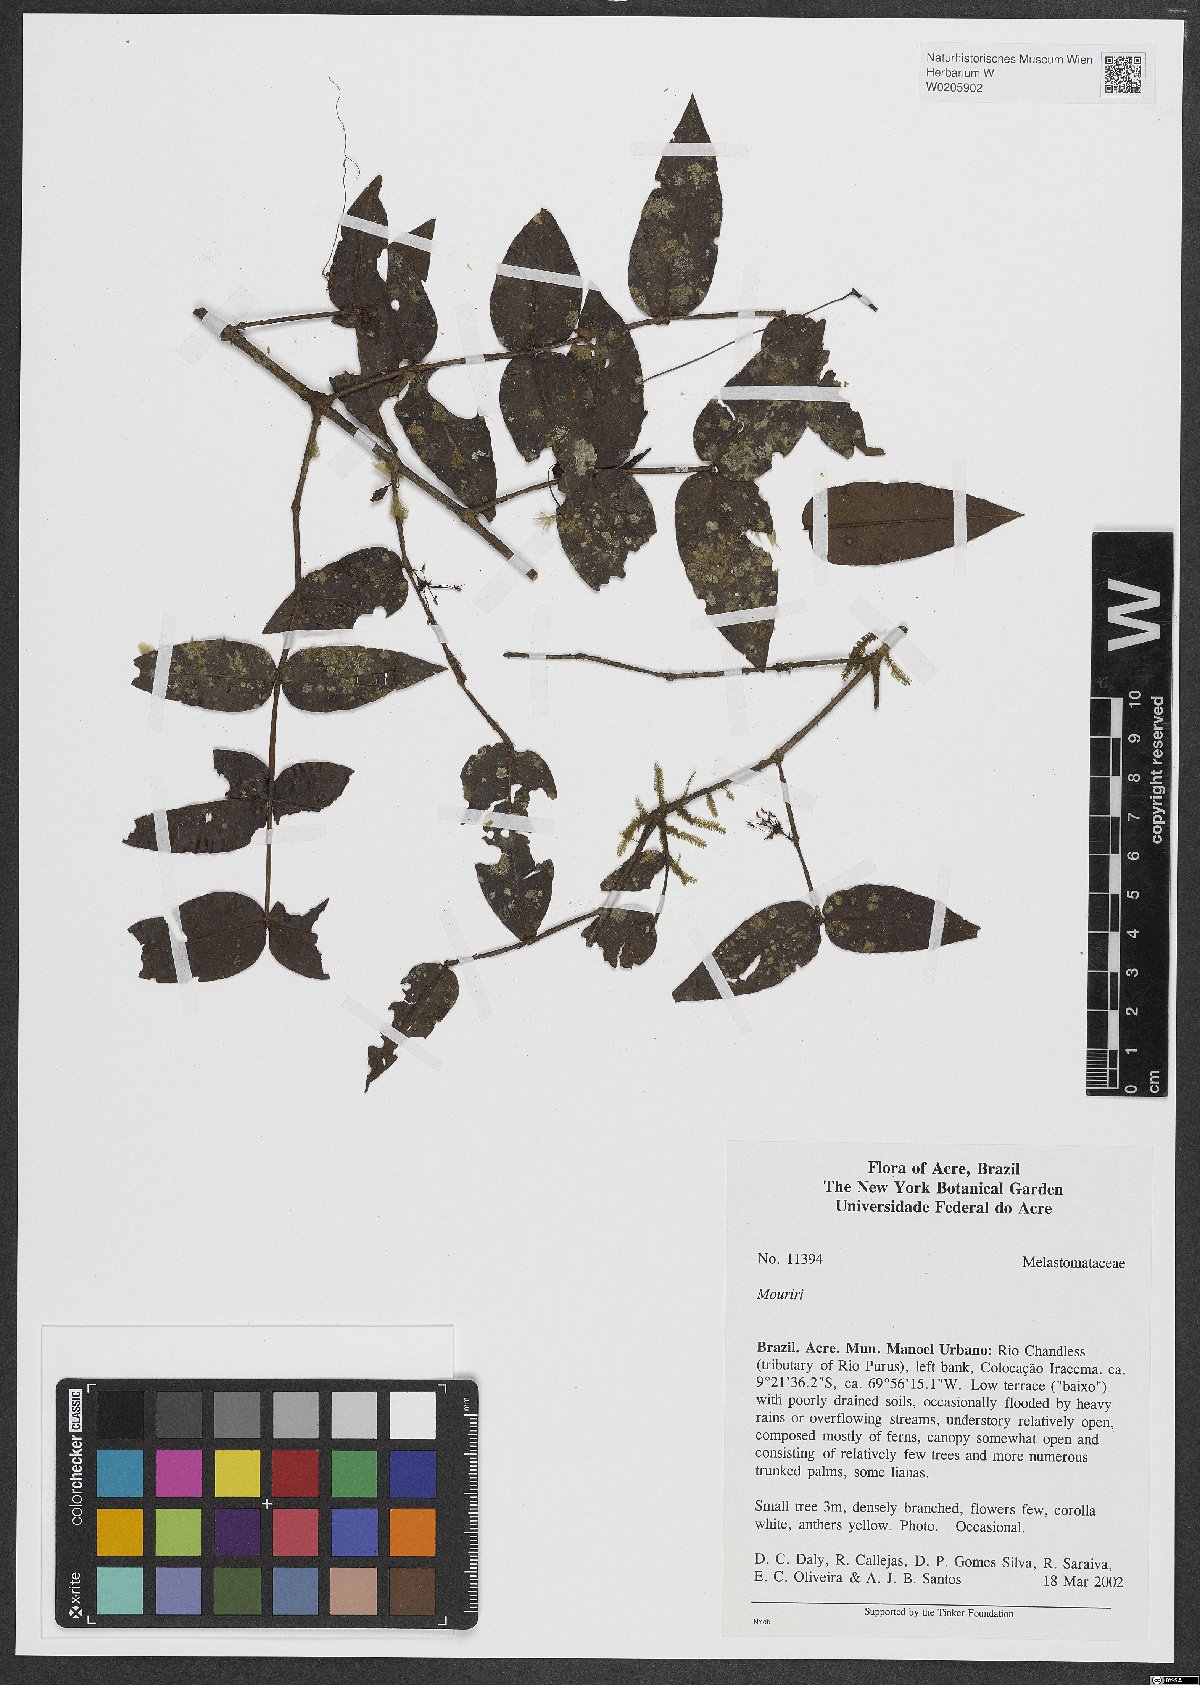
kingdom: Plantae
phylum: Tracheophyta
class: Magnoliopsida
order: Myrtales
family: Melastomataceae
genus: Mouriri
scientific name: Mouriri
